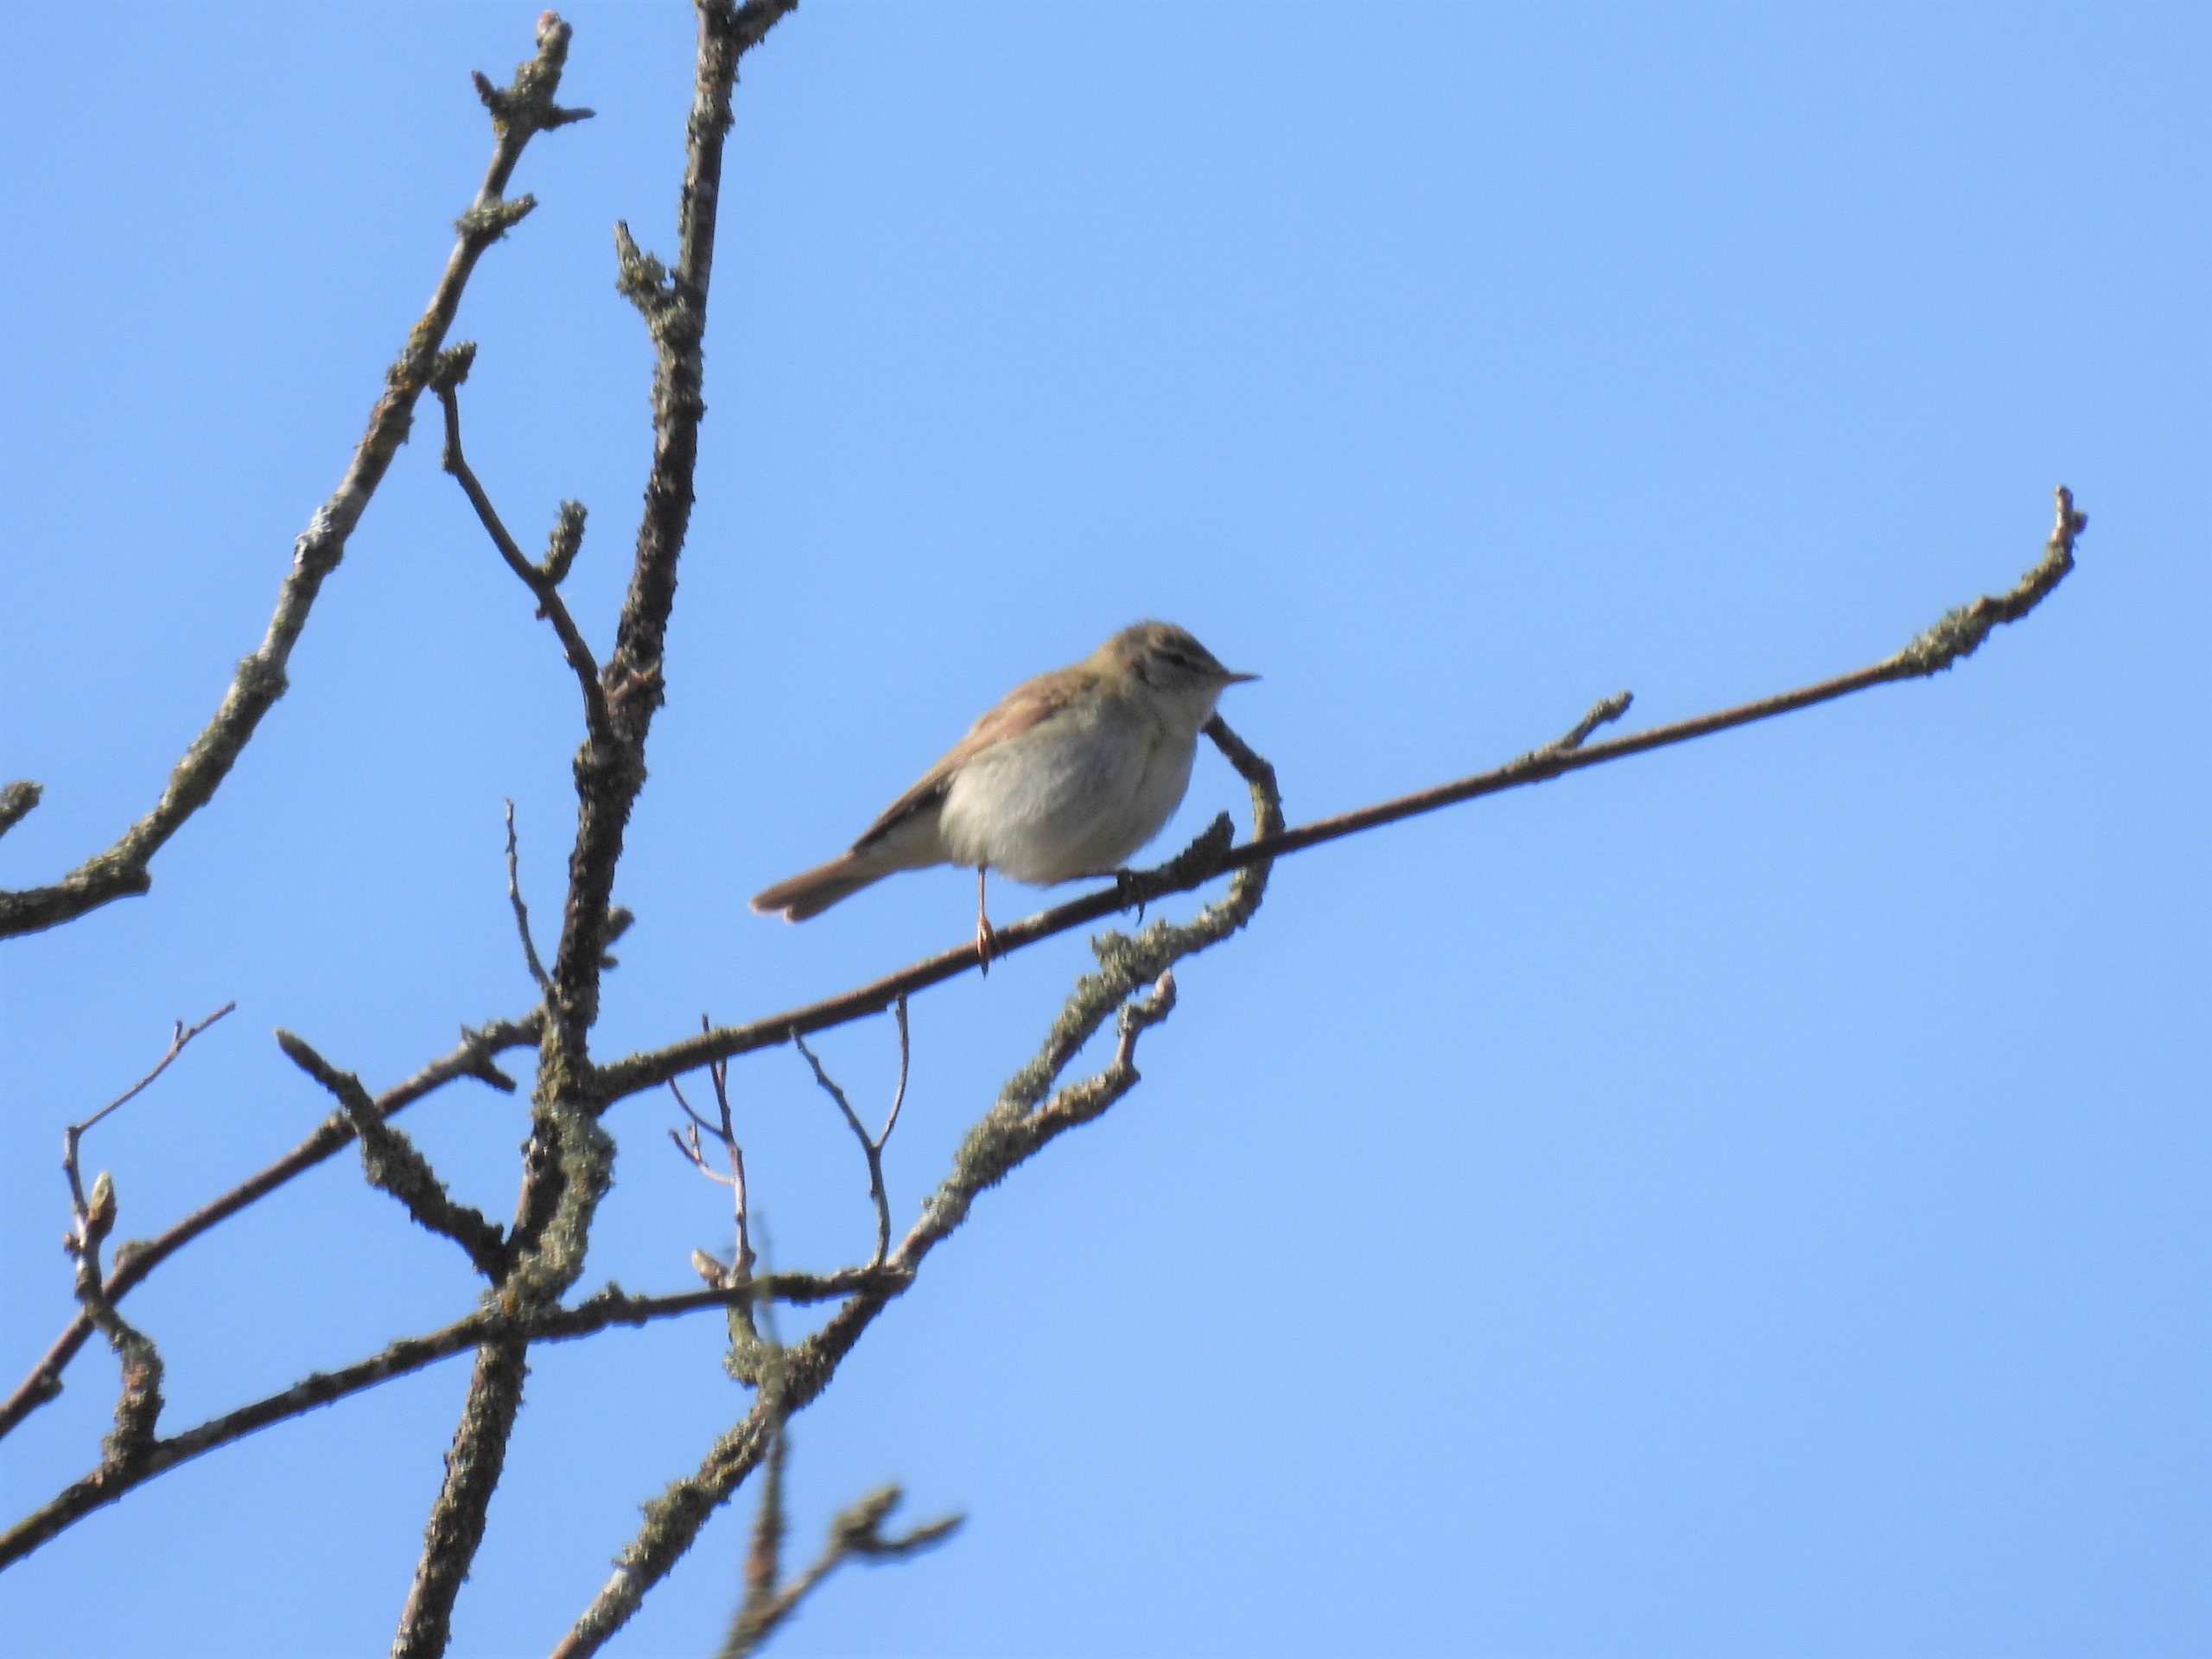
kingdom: Animalia
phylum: Chordata
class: Aves
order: Passeriformes
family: Phylloscopidae
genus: Phylloscopus
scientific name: Phylloscopus trochilus
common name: Løvsanger
